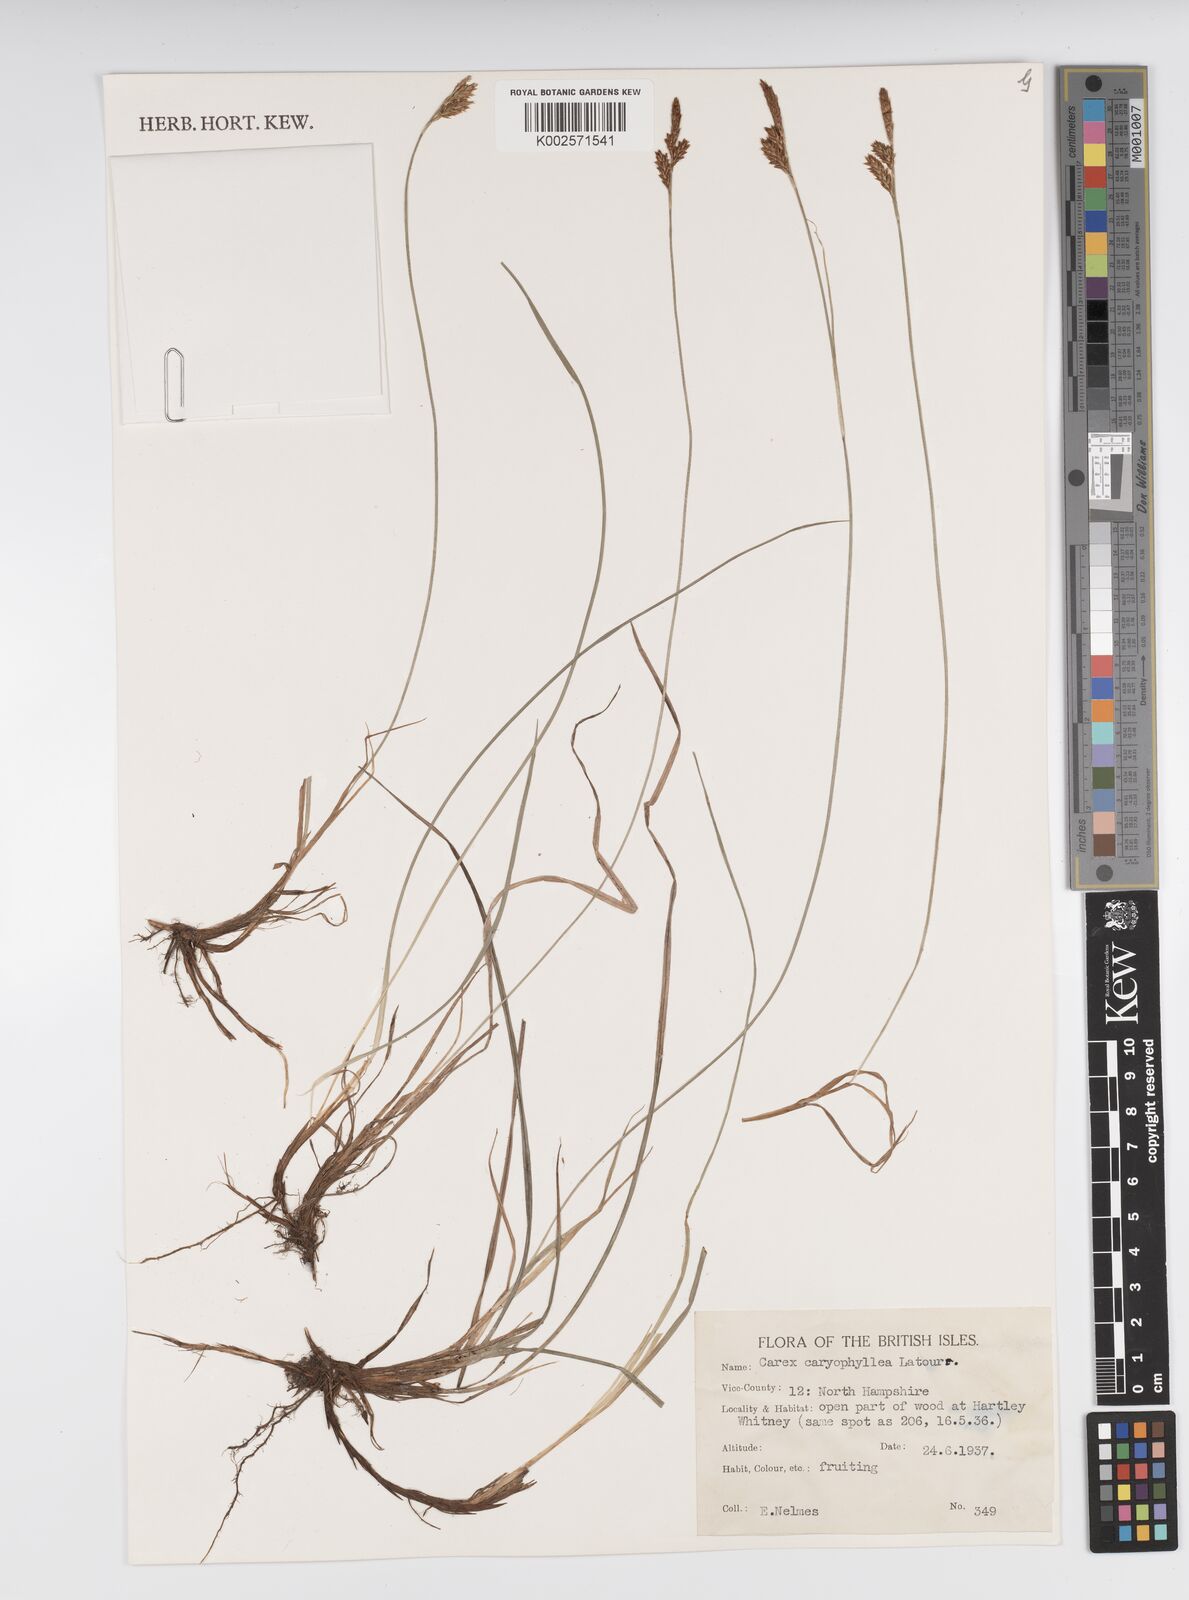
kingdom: Plantae
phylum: Tracheophyta
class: Liliopsida
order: Poales
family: Cyperaceae
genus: Carex
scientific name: Carex caryophyllea
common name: Spring sedge
